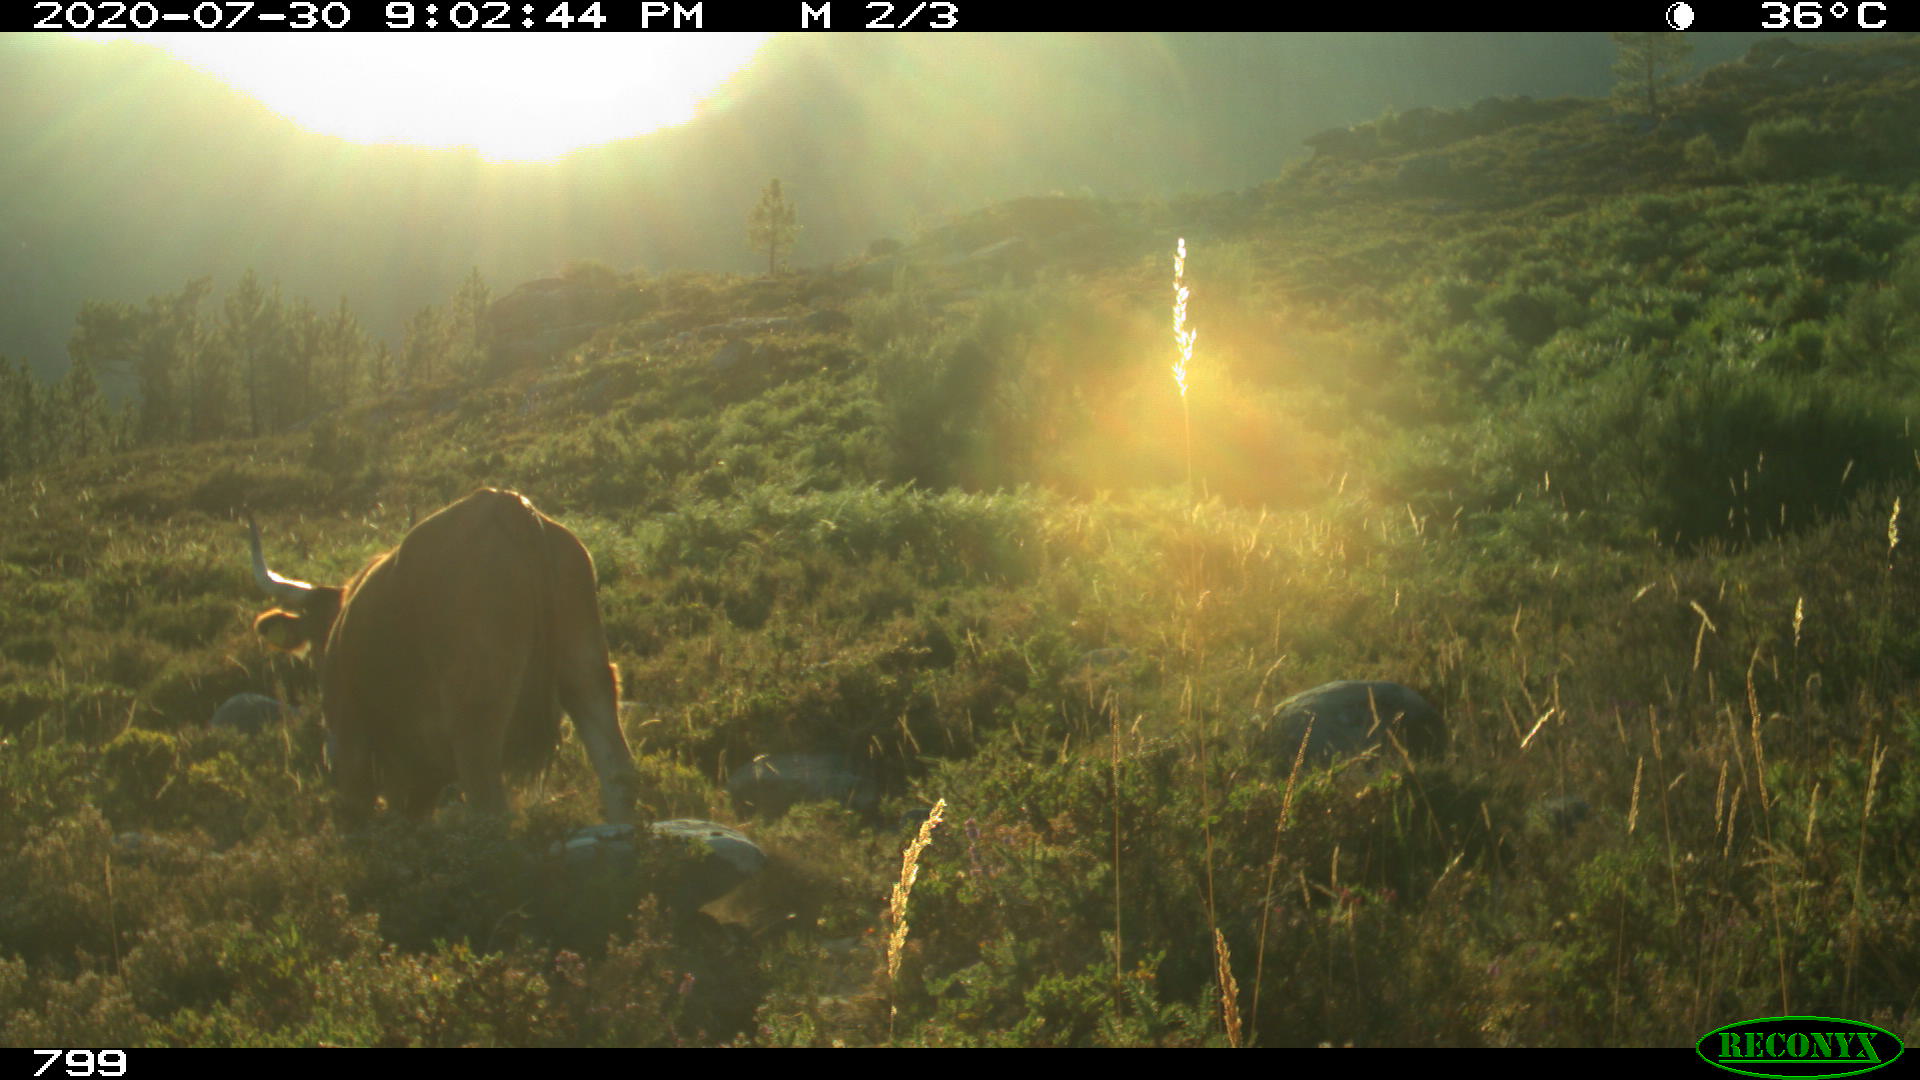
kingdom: Animalia
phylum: Chordata
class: Mammalia
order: Artiodactyla
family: Bovidae
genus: Bos
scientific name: Bos taurus
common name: Domesticated cattle
